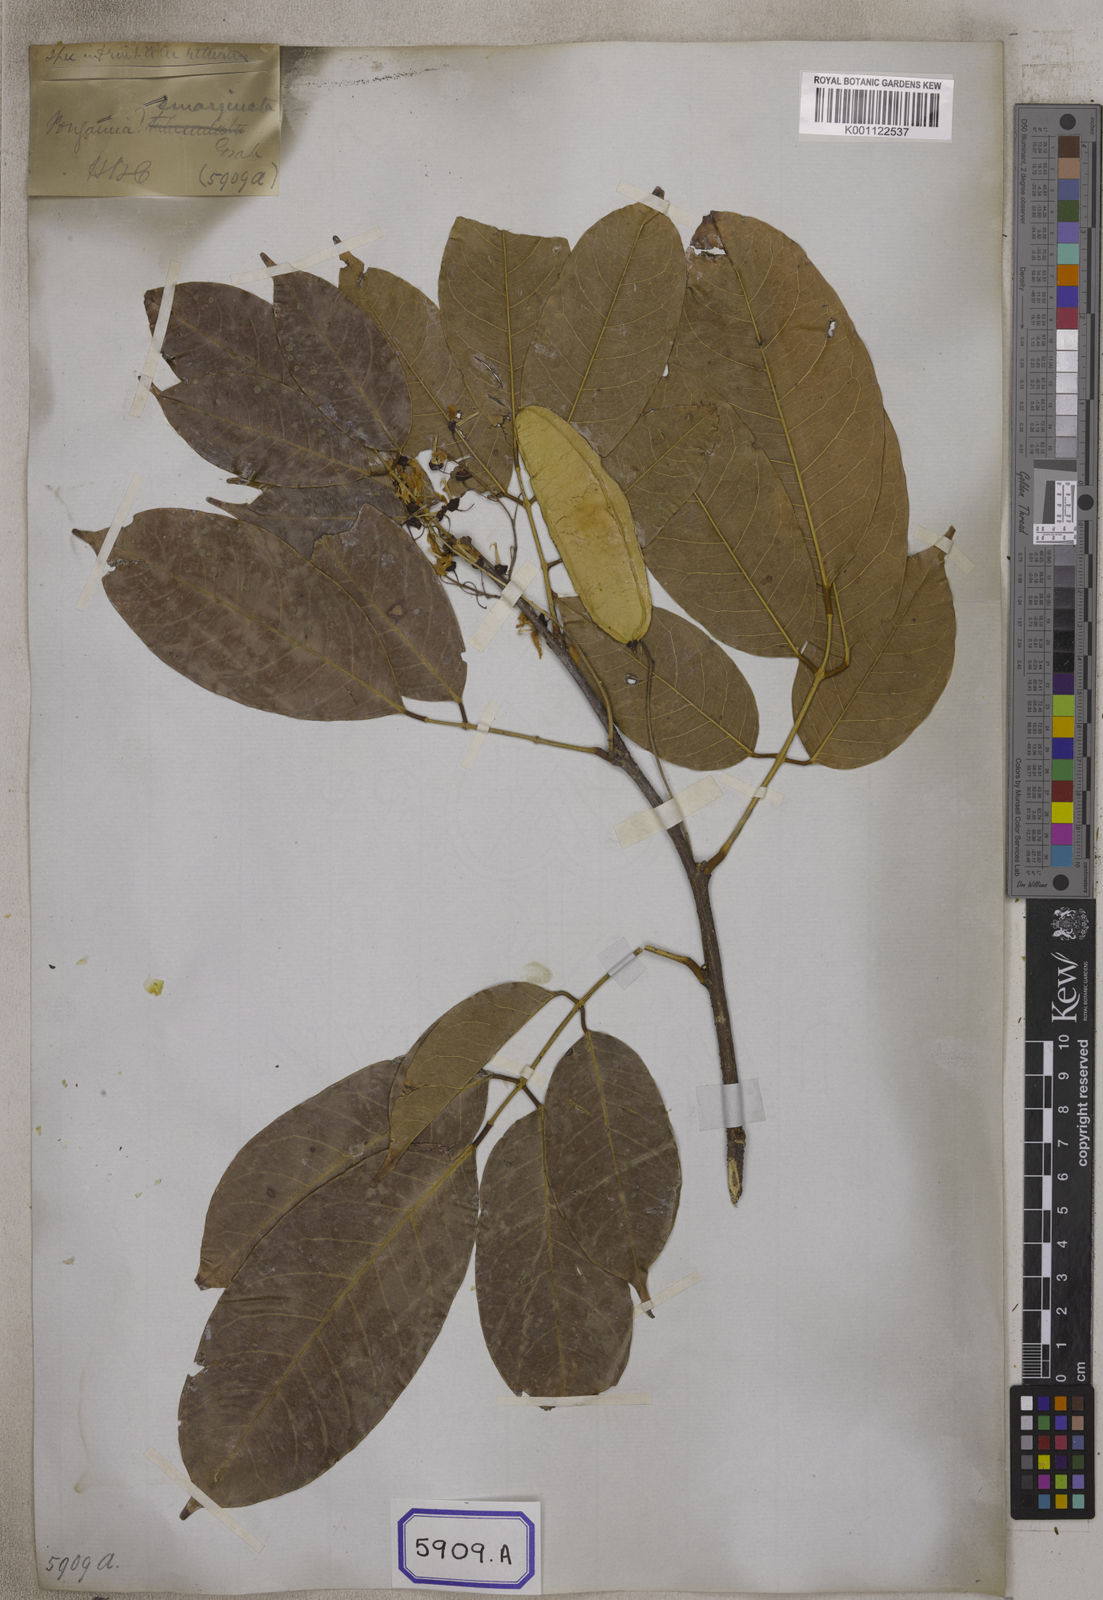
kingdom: Plantae
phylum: Tracheophyta
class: Magnoliopsida
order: Fabales
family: Fabaceae
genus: Pongamia
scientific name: Pongamia
